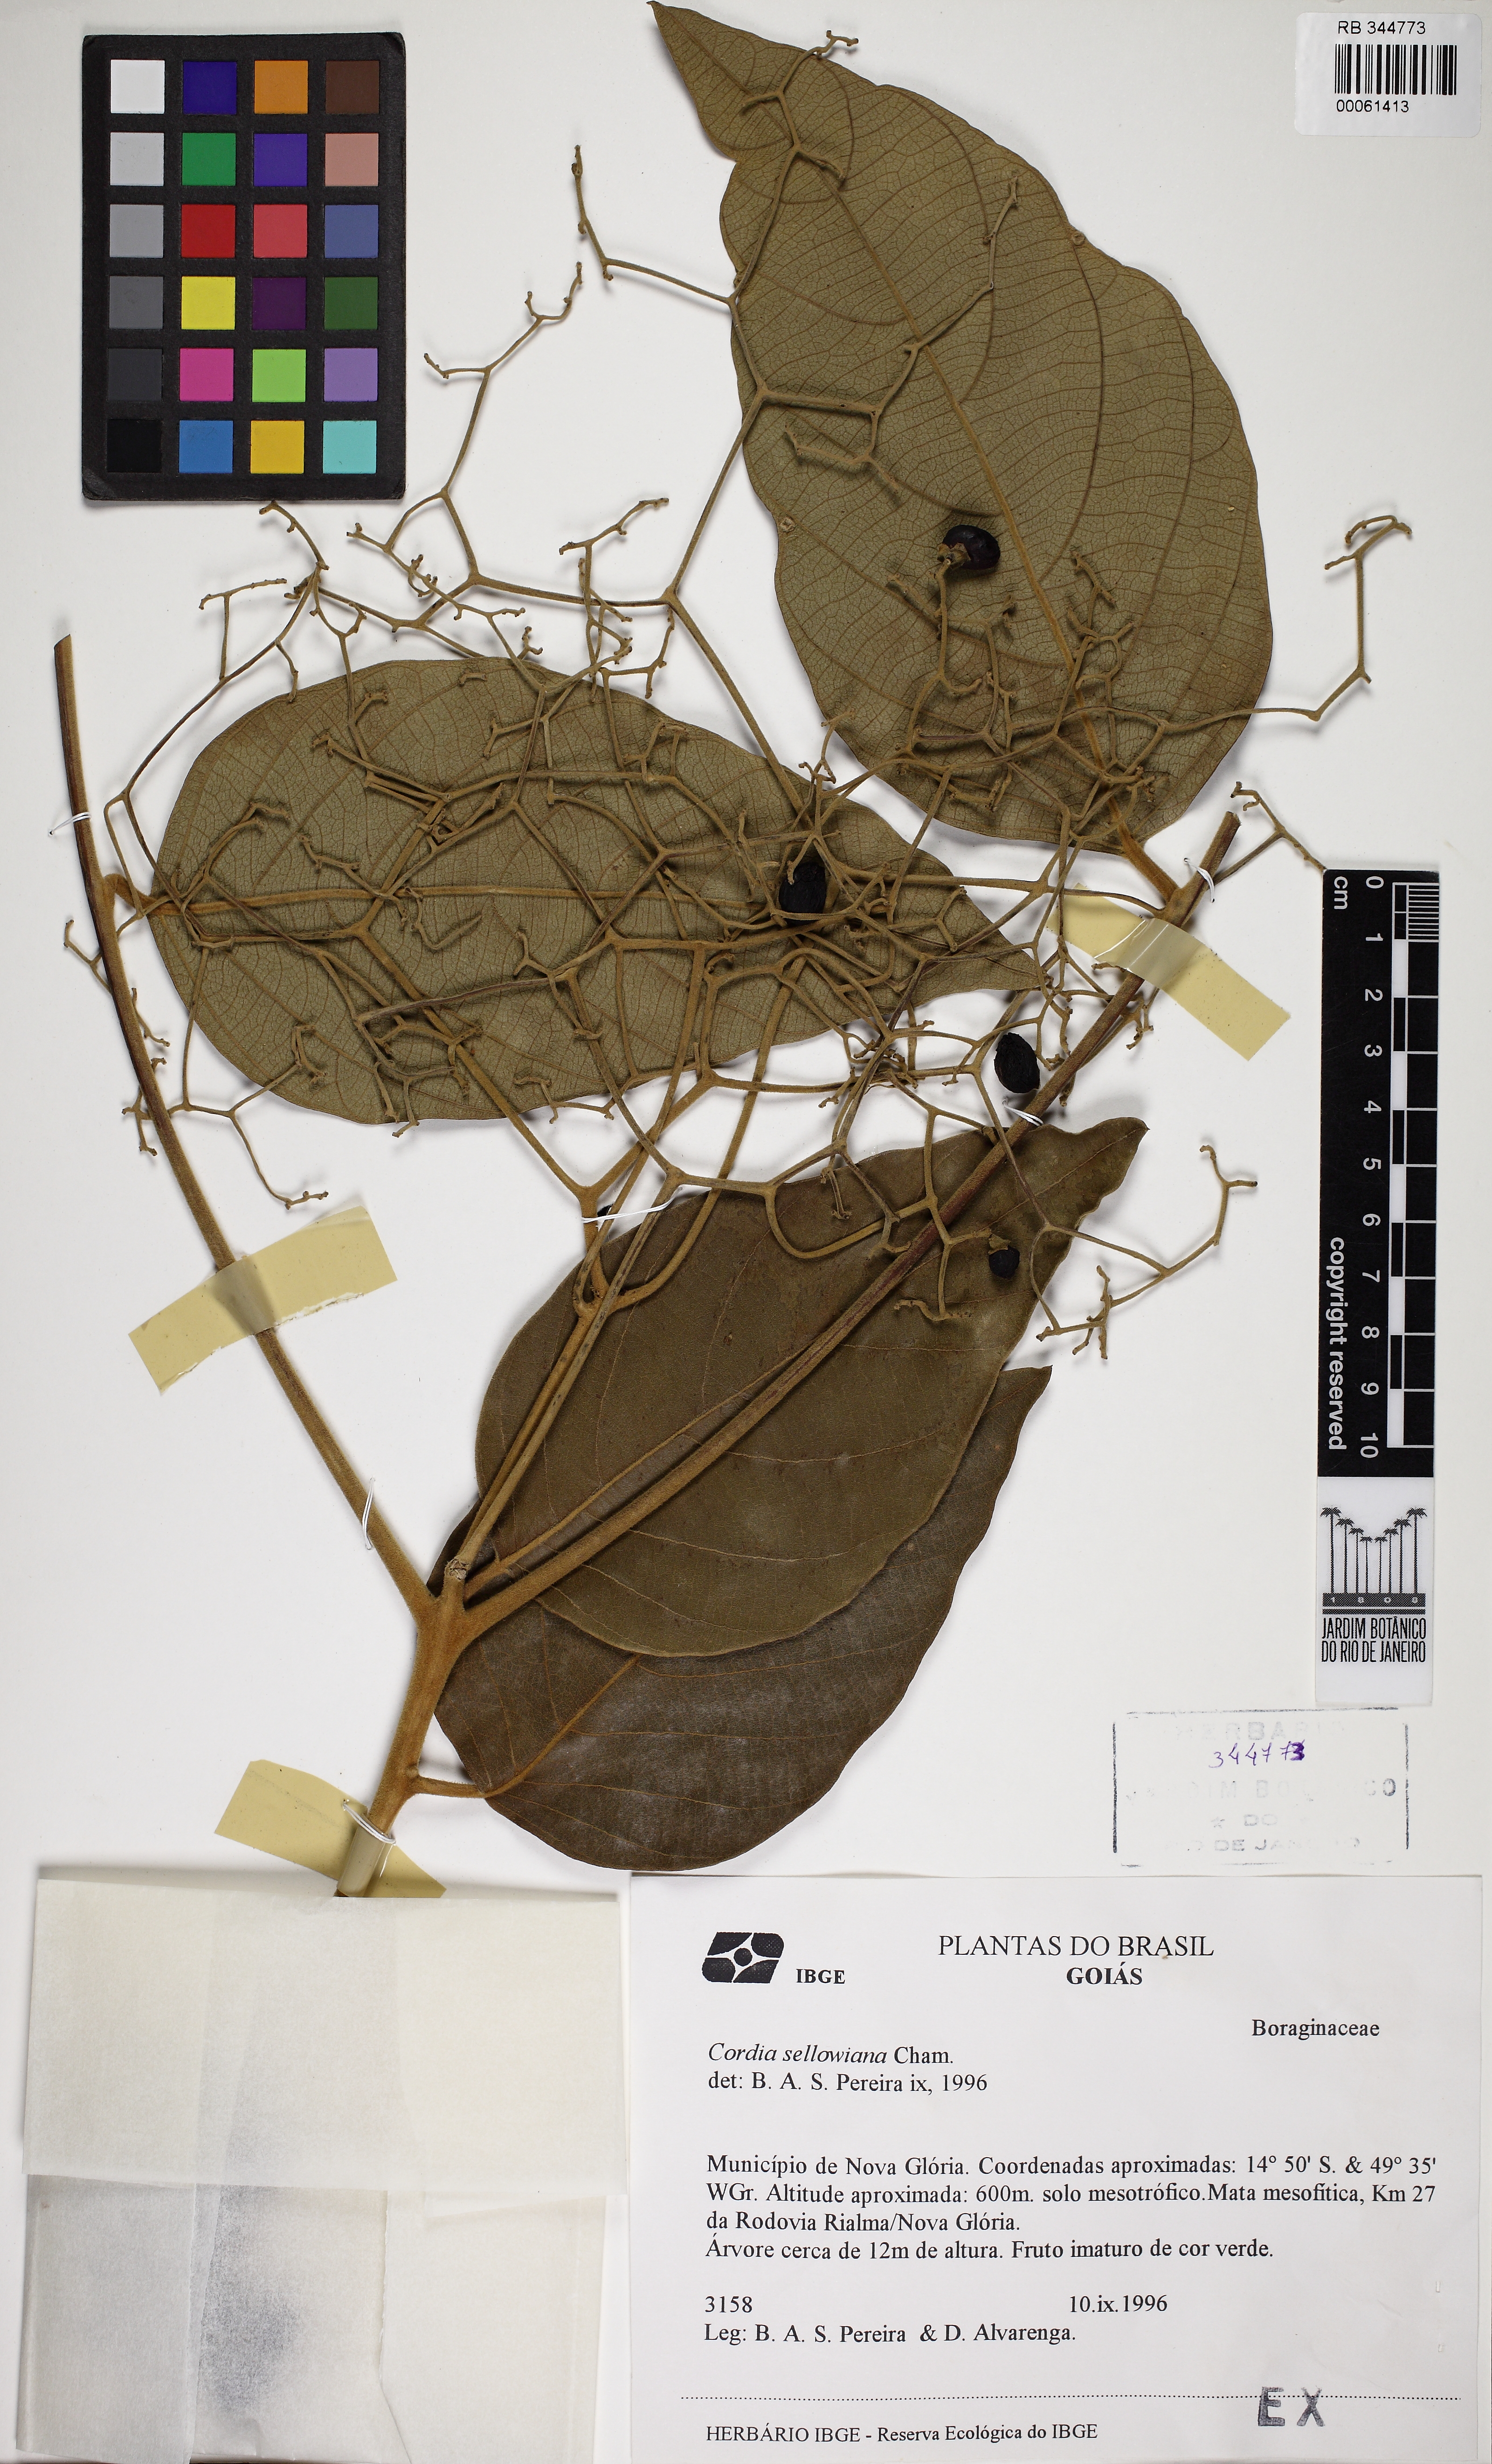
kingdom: Plantae
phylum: Tracheophyta
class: Magnoliopsida
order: Boraginales
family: Cordiaceae
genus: Cordia
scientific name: Cordia sellowiana
